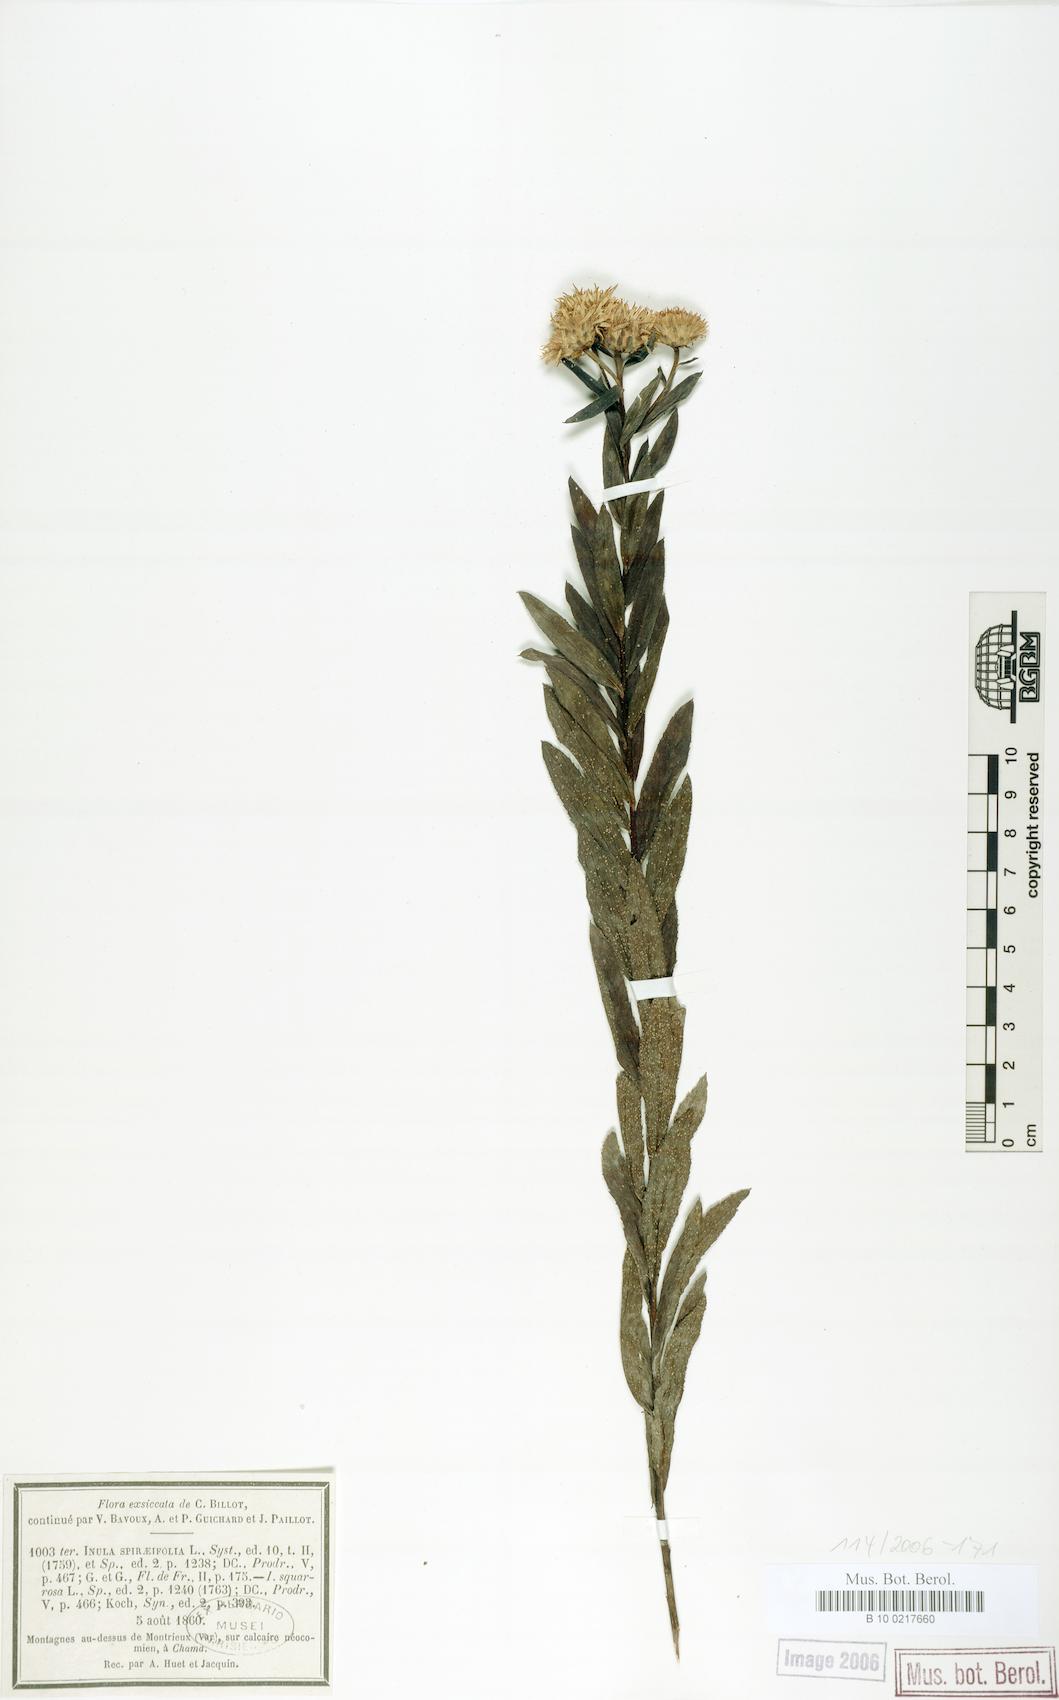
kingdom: Plantae
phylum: Tracheophyta
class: Magnoliopsida
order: Asterales
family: Asteraceae
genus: Pentanema
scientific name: Pentanema spiraeifolium
